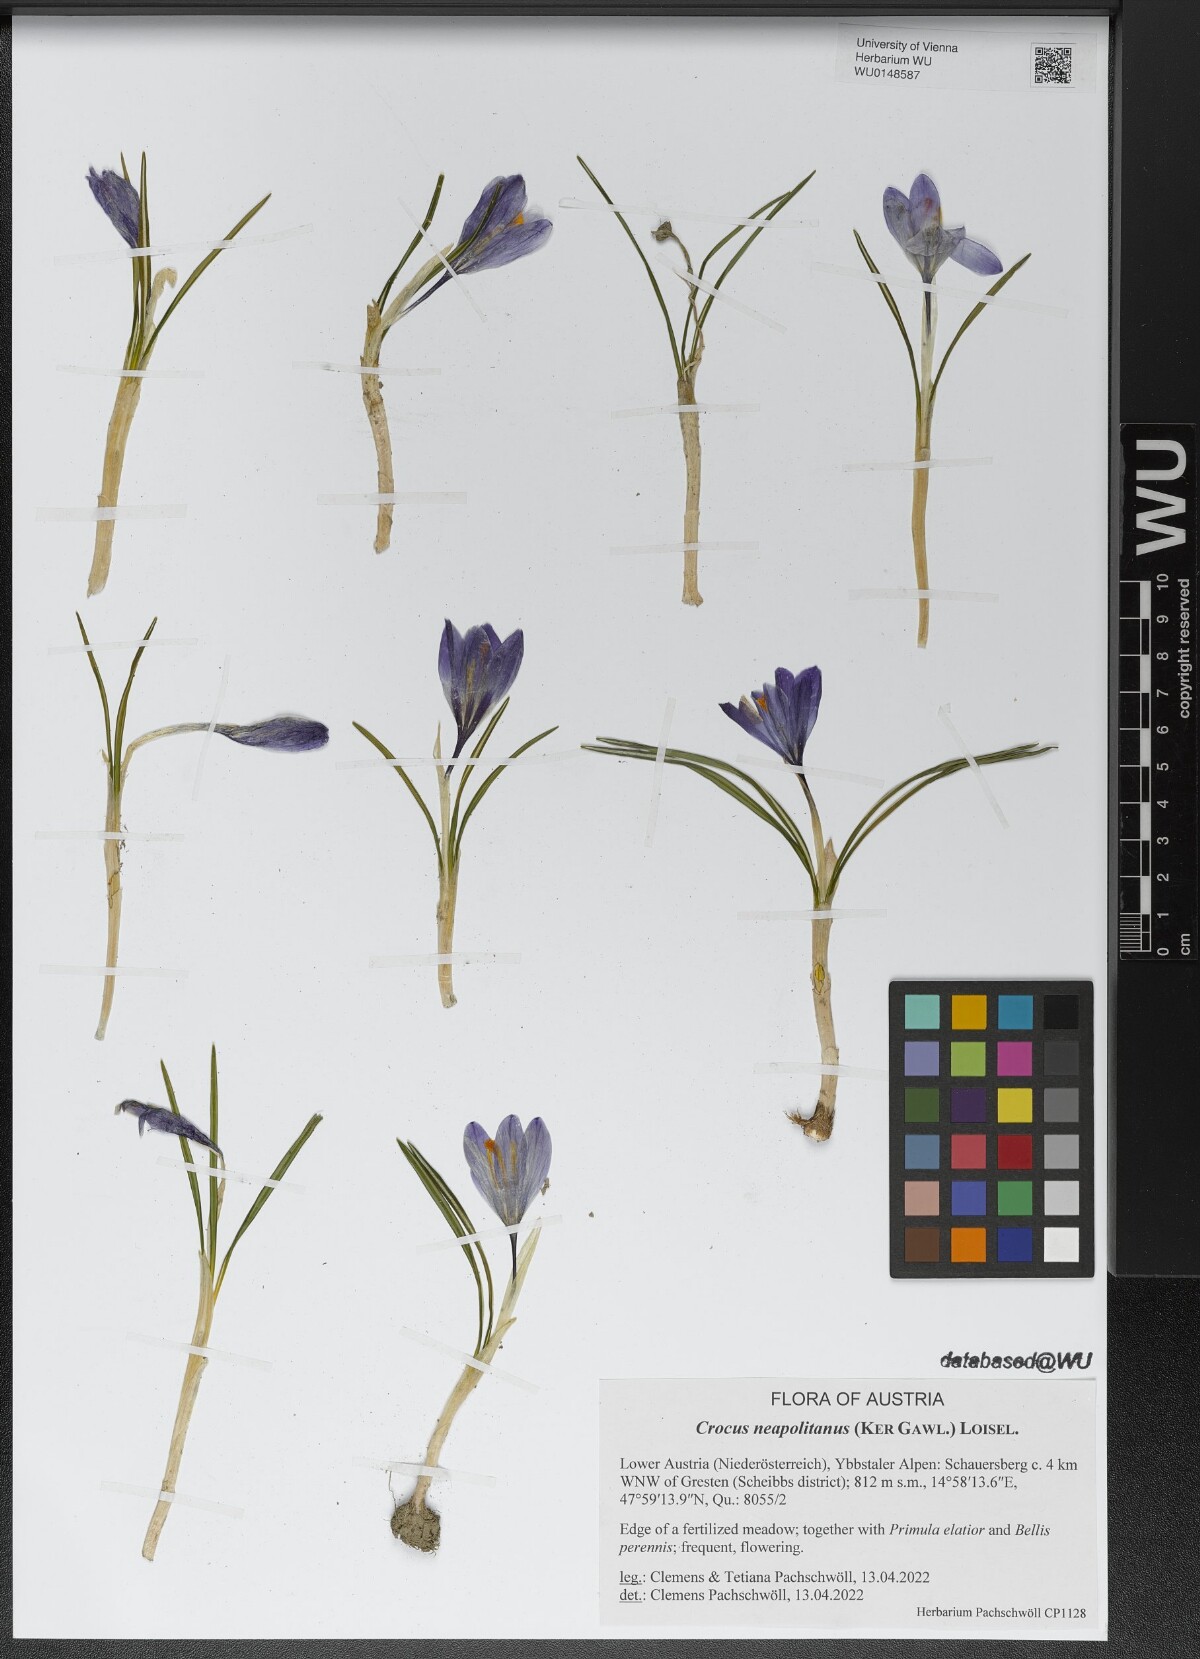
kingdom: Plantae
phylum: Tracheophyta
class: Liliopsida
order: Asparagales
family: Iridaceae
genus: Crocus
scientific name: Crocus neapolitanus
